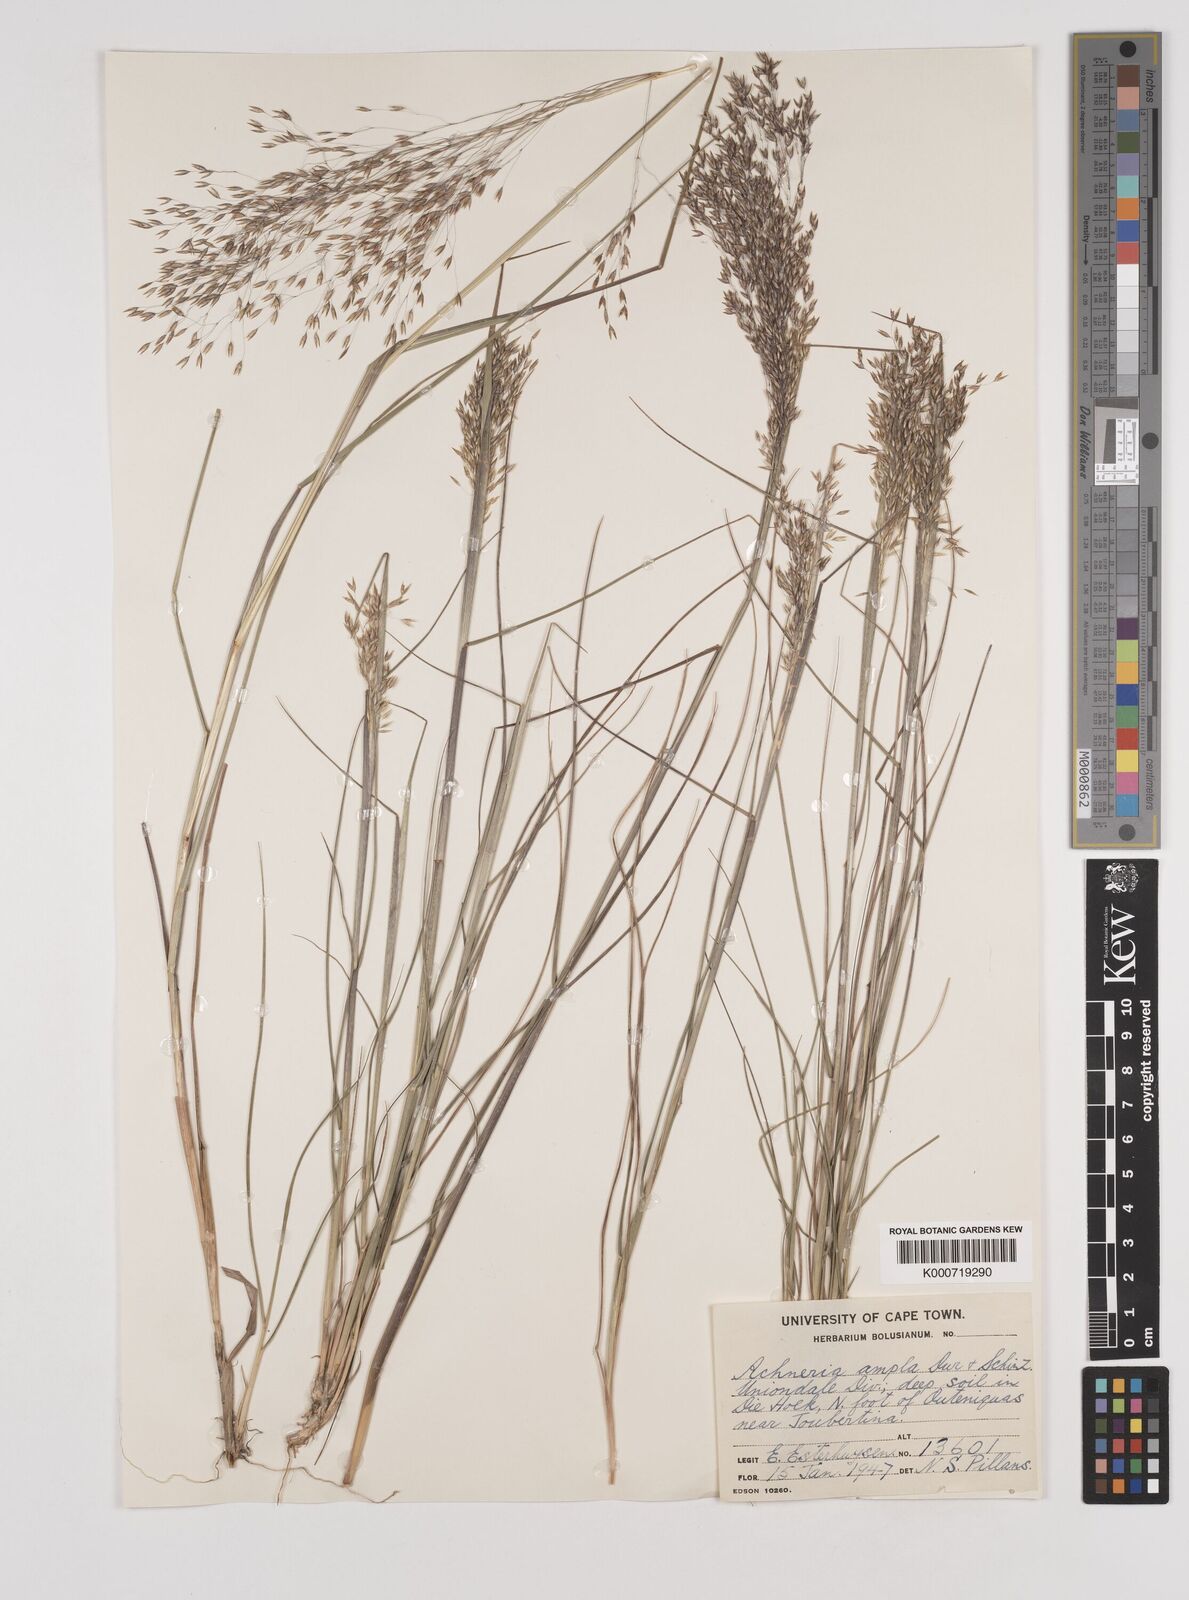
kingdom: Plantae
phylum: Tracheophyta
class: Liliopsida
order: Poales
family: Poaceae
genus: Pentameris
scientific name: Pentameris ampla
